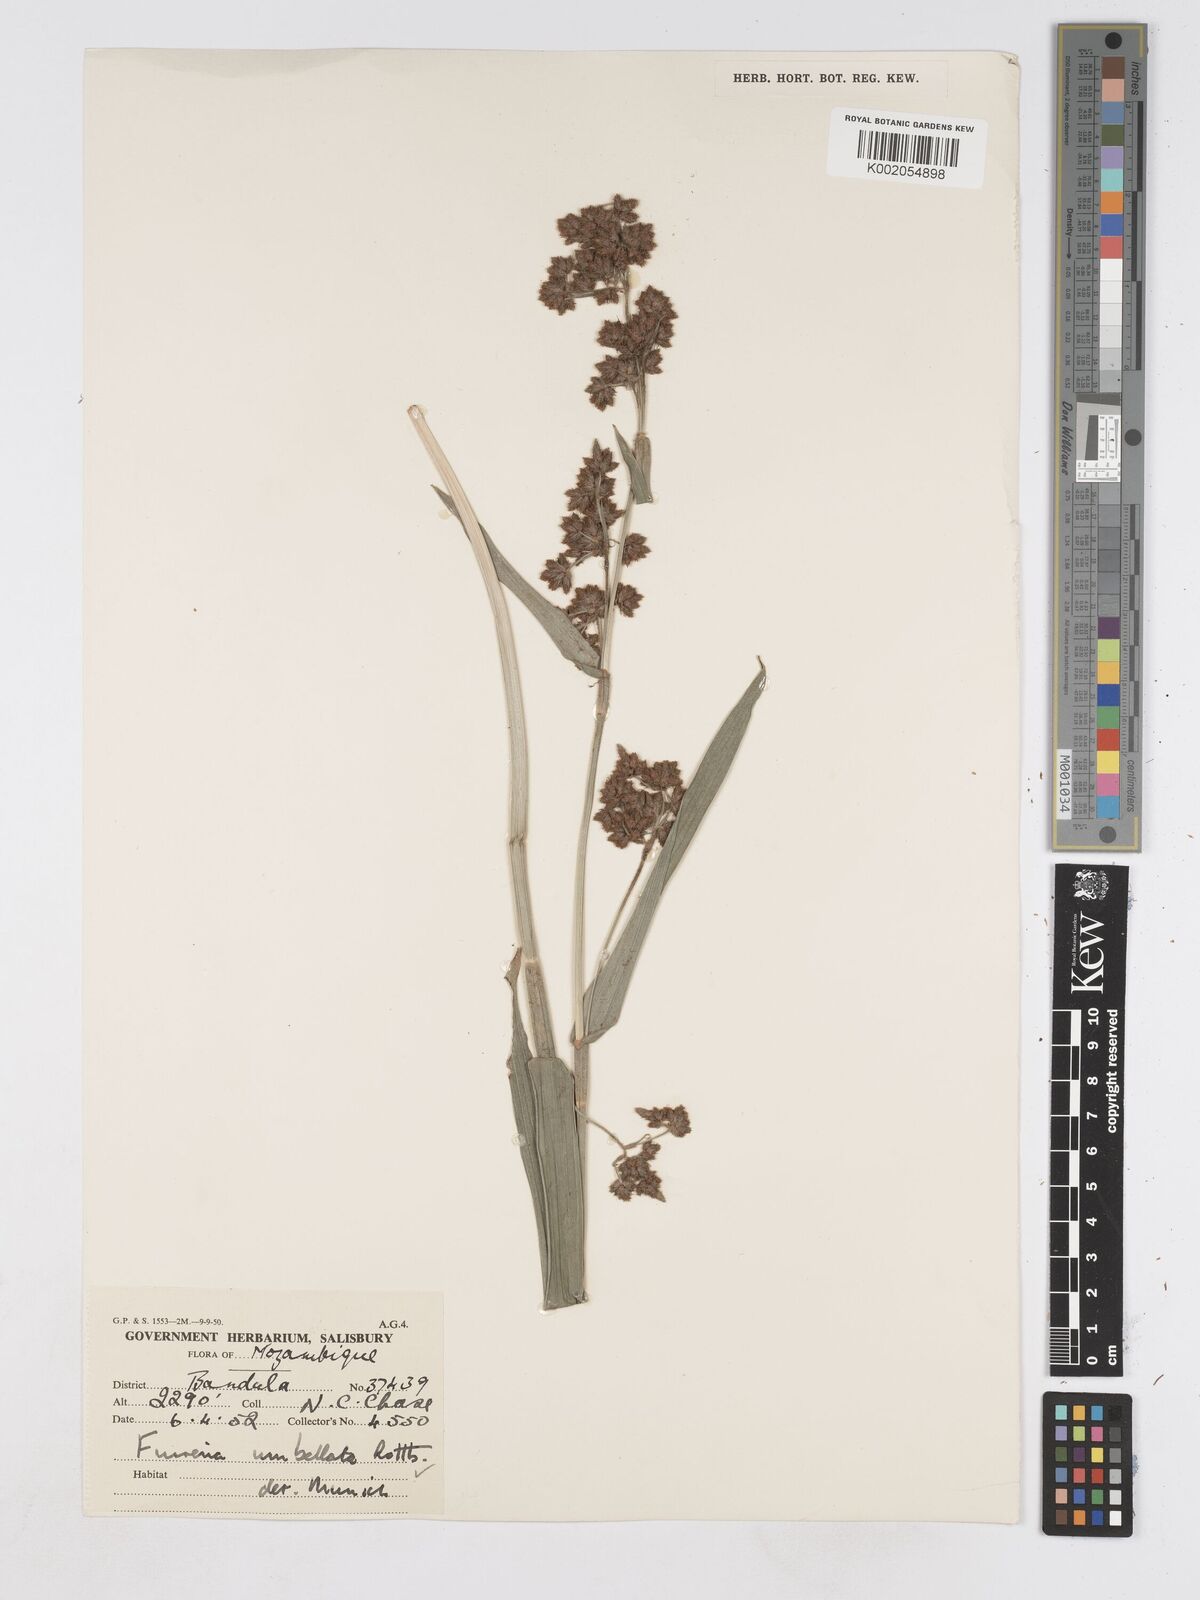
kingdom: Plantae
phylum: Tracheophyta
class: Liliopsida
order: Poales
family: Cyperaceae
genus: Fuirena
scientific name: Fuirena umbellata
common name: Yefen
